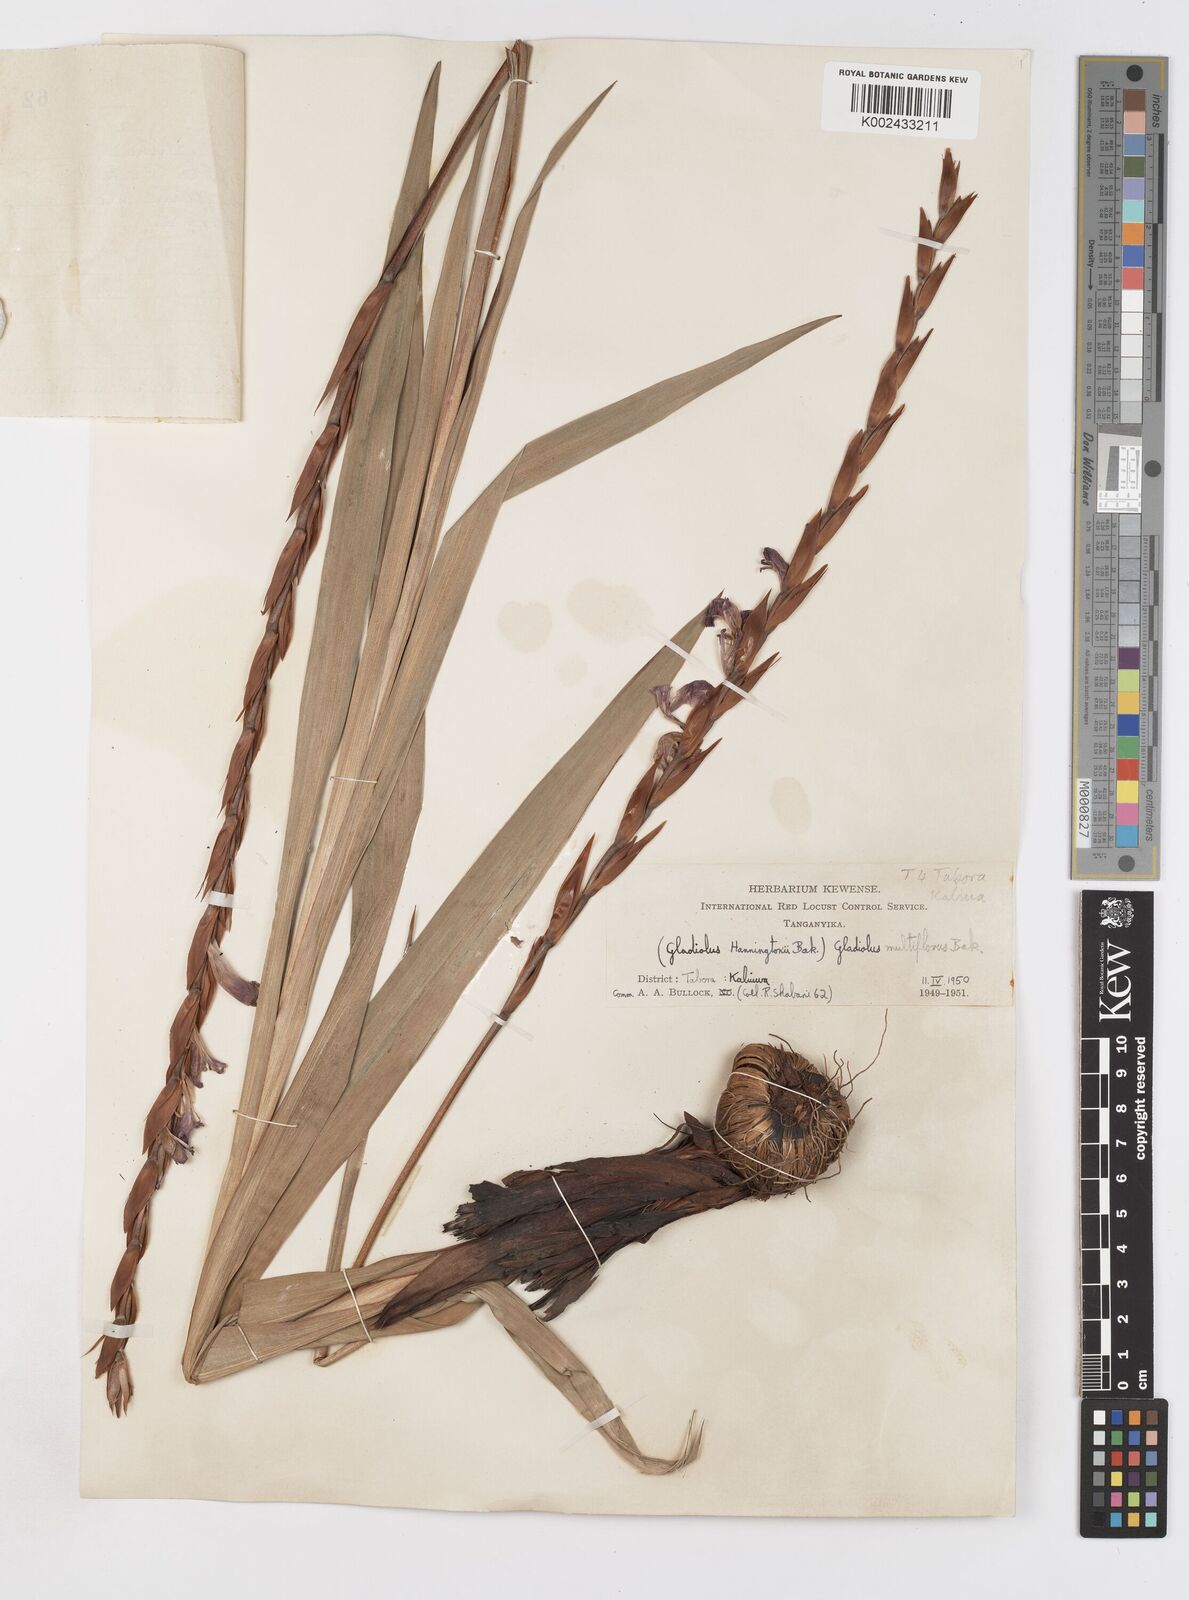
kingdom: Plantae
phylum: Tracheophyta
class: Liliopsida
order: Asparagales
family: Iridaceae
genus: Gladiolus
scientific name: Gladiolus gregarius
